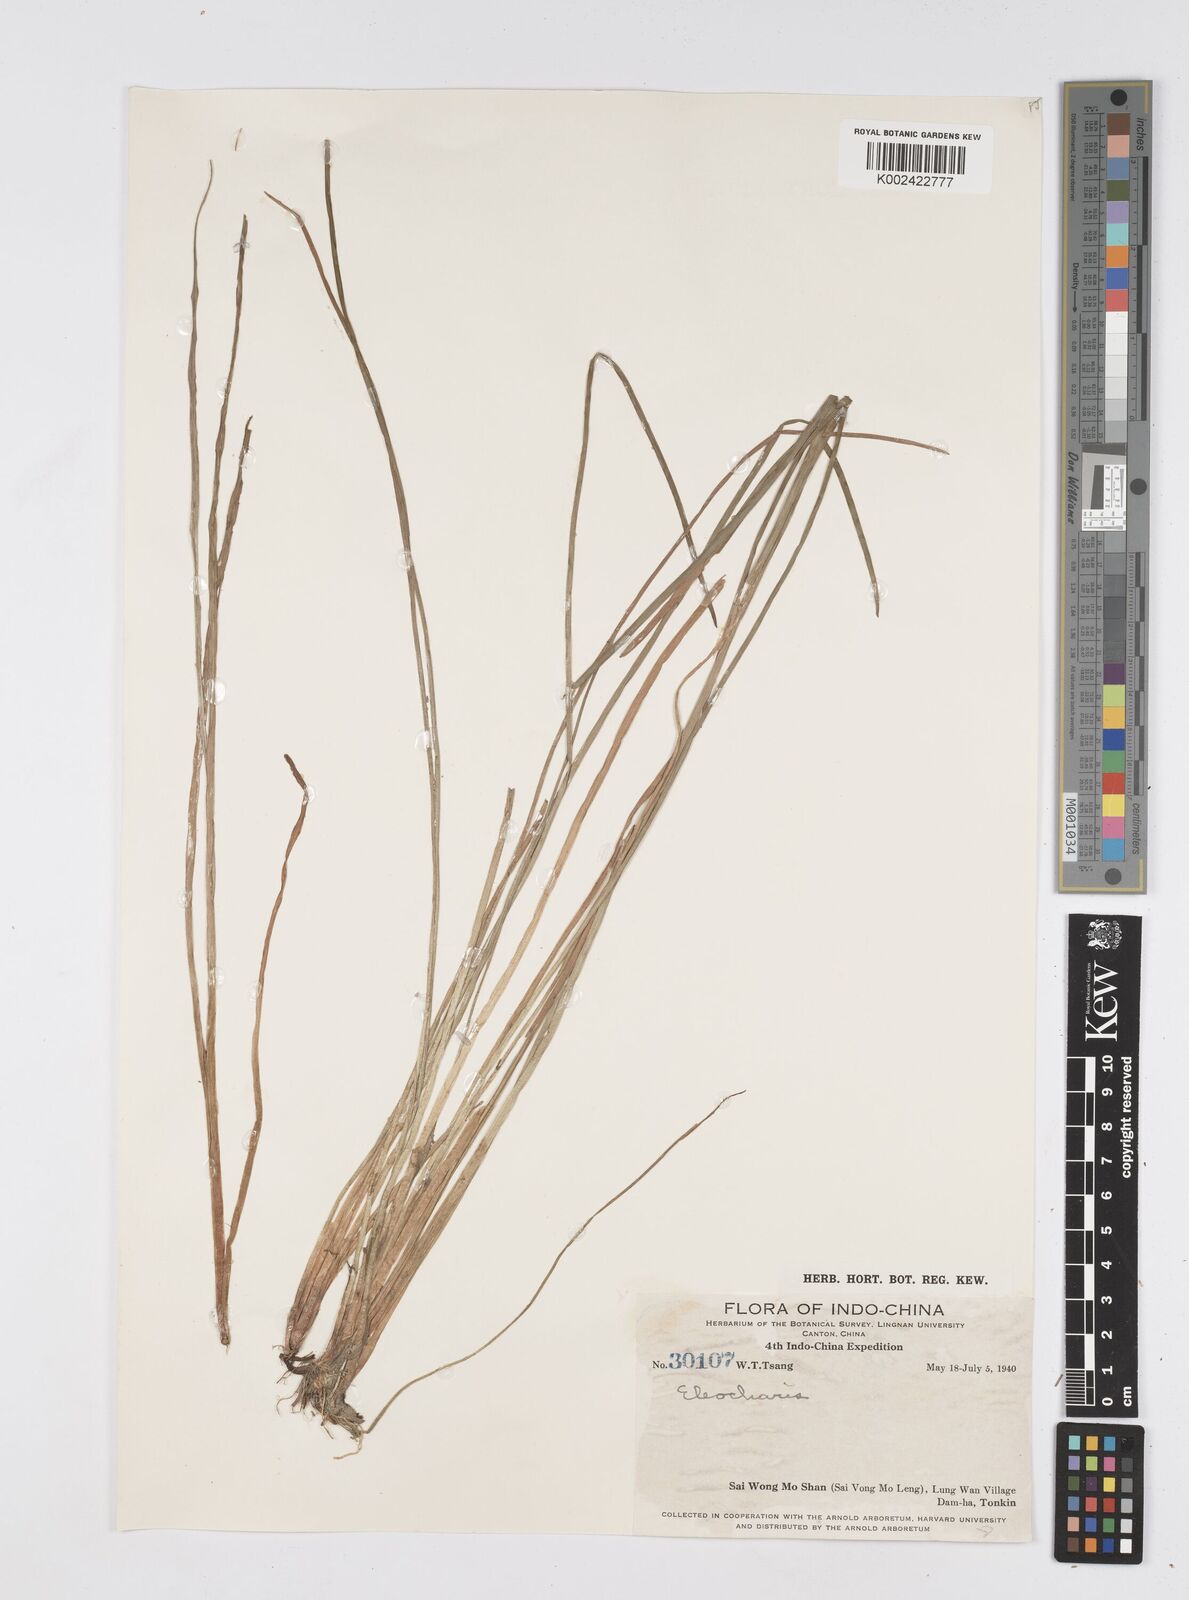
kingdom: Plantae
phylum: Tracheophyta
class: Liliopsida
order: Poales
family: Cyperaceae
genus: Eleocharis
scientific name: Eleocharis spiralis
